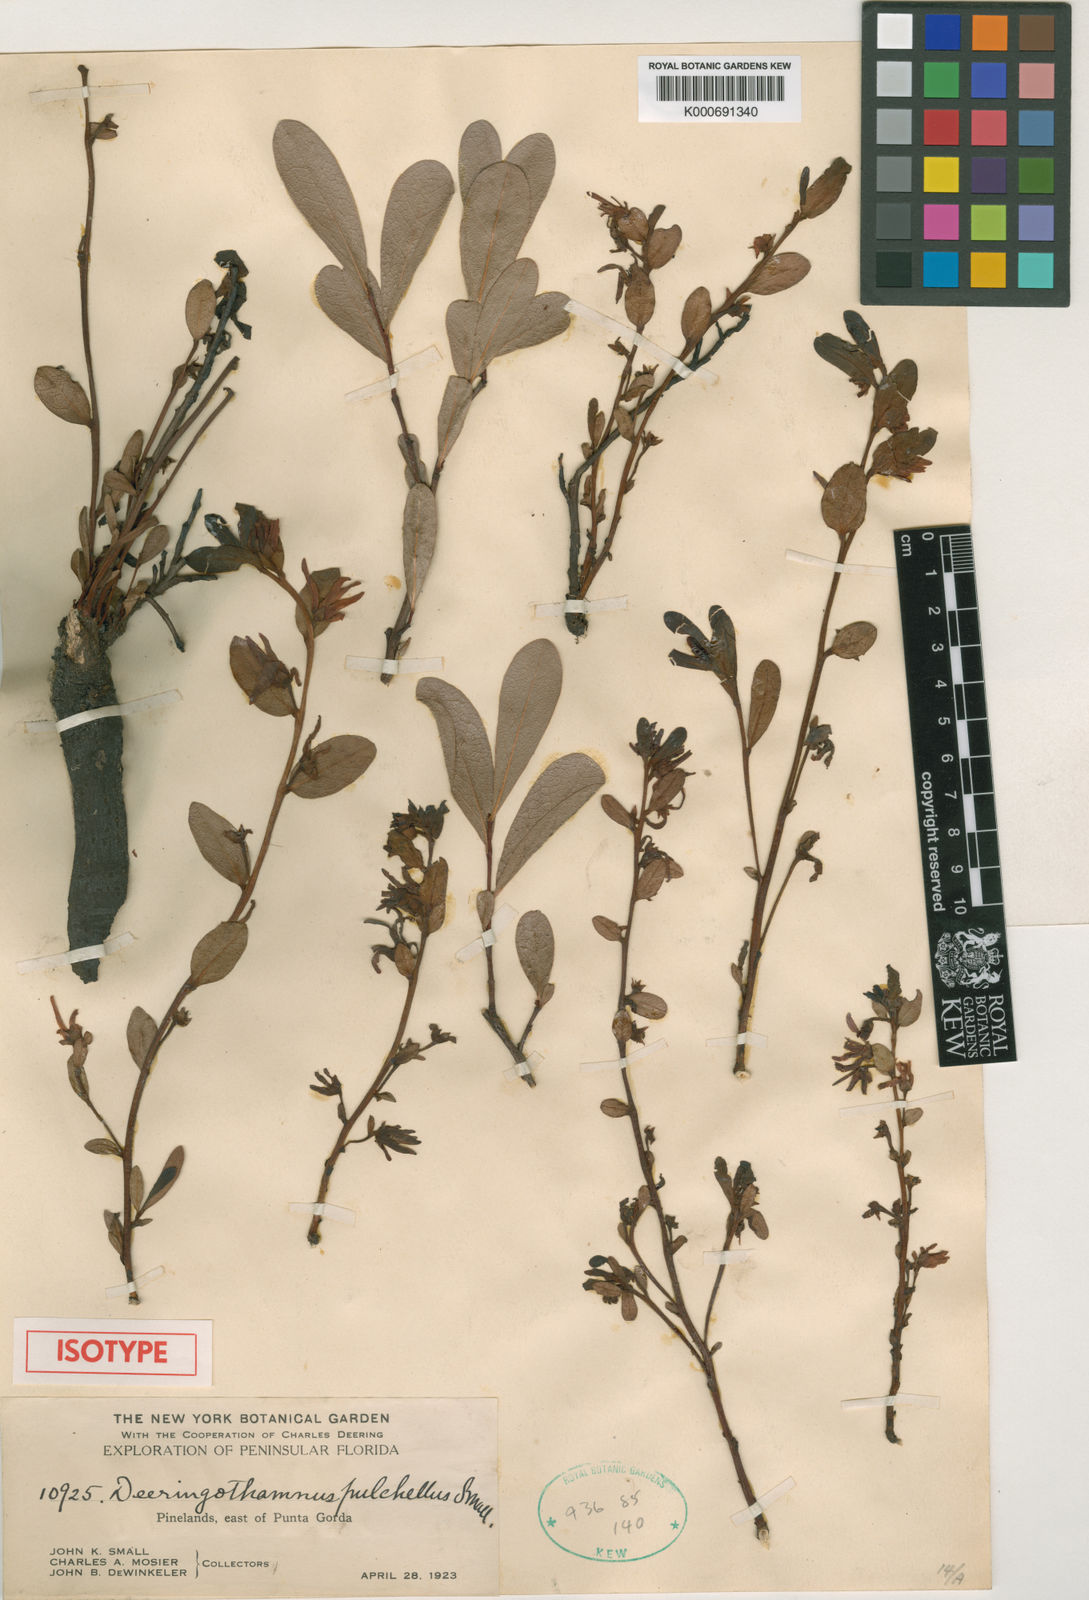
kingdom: Plantae
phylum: Tracheophyta
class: Magnoliopsida
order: Magnoliales
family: Annonaceae
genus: Asimina
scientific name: Asimina pulchella
